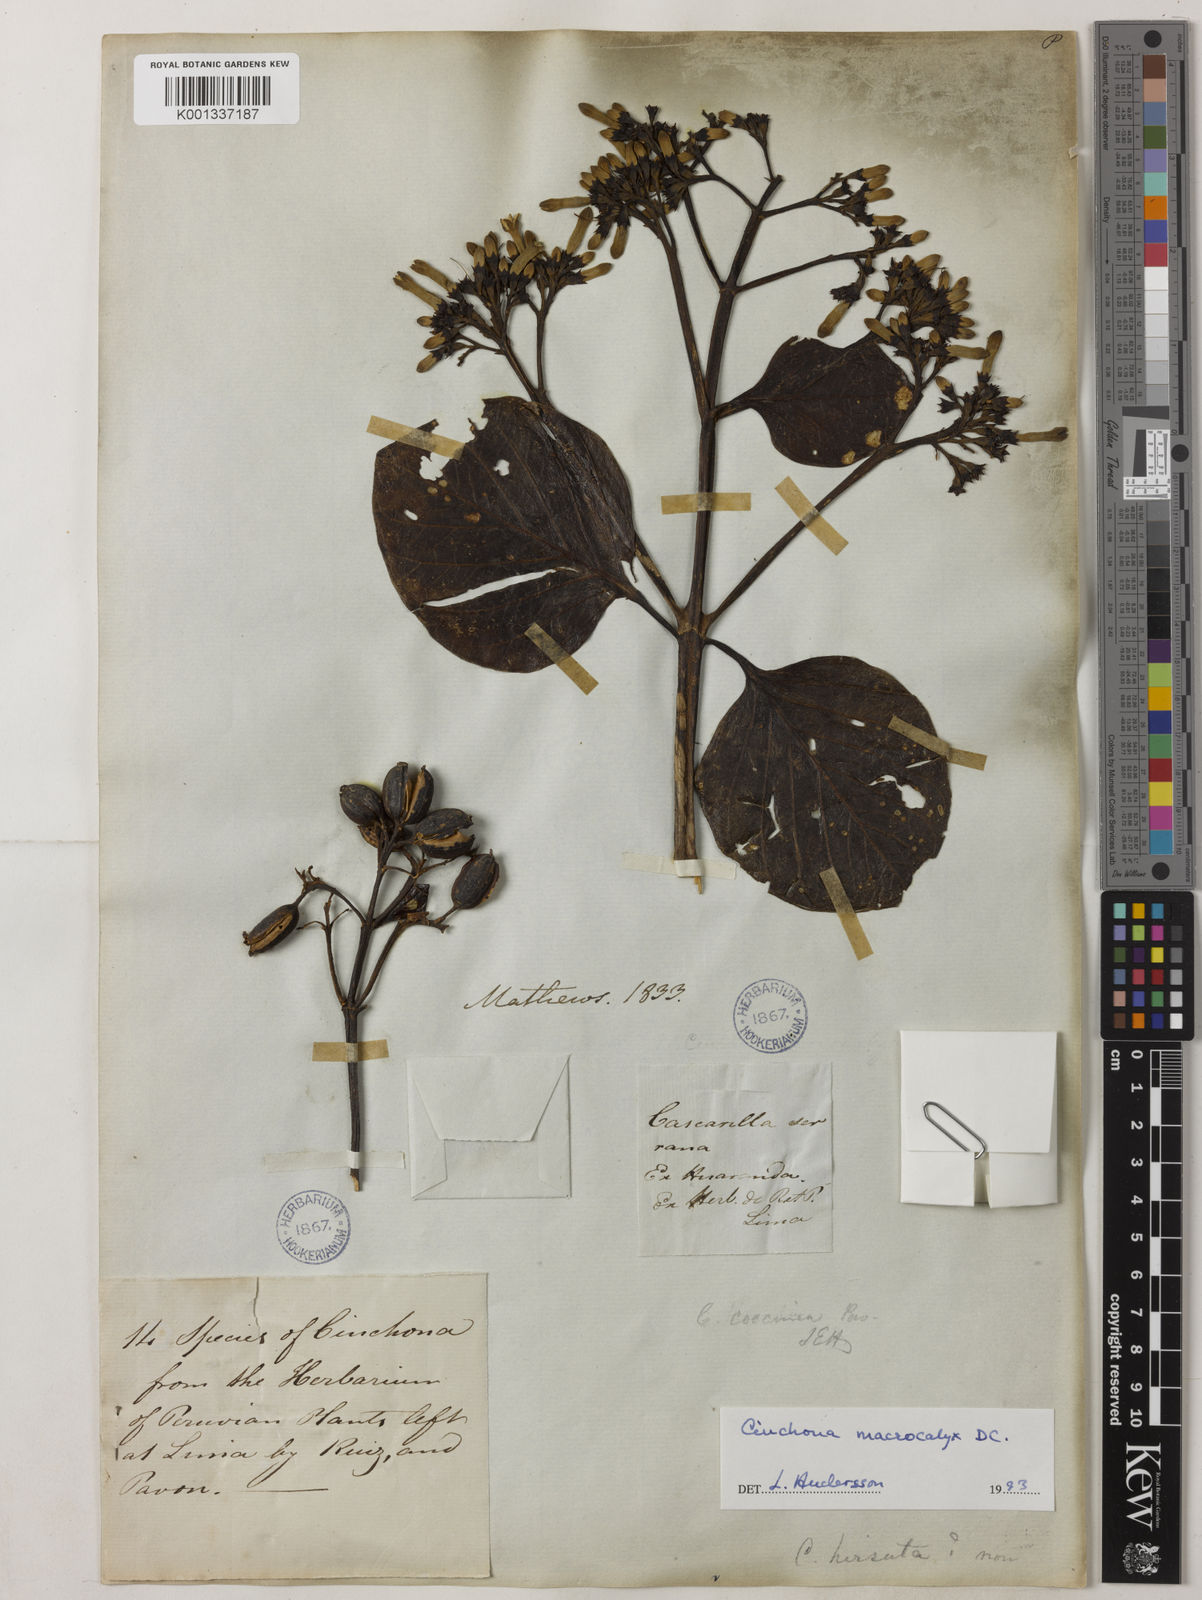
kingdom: Plantae
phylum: Tracheophyta
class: Magnoliopsida
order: Gentianales
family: Rubiaceae
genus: Cinchona
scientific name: Cinchona macrocalyx
